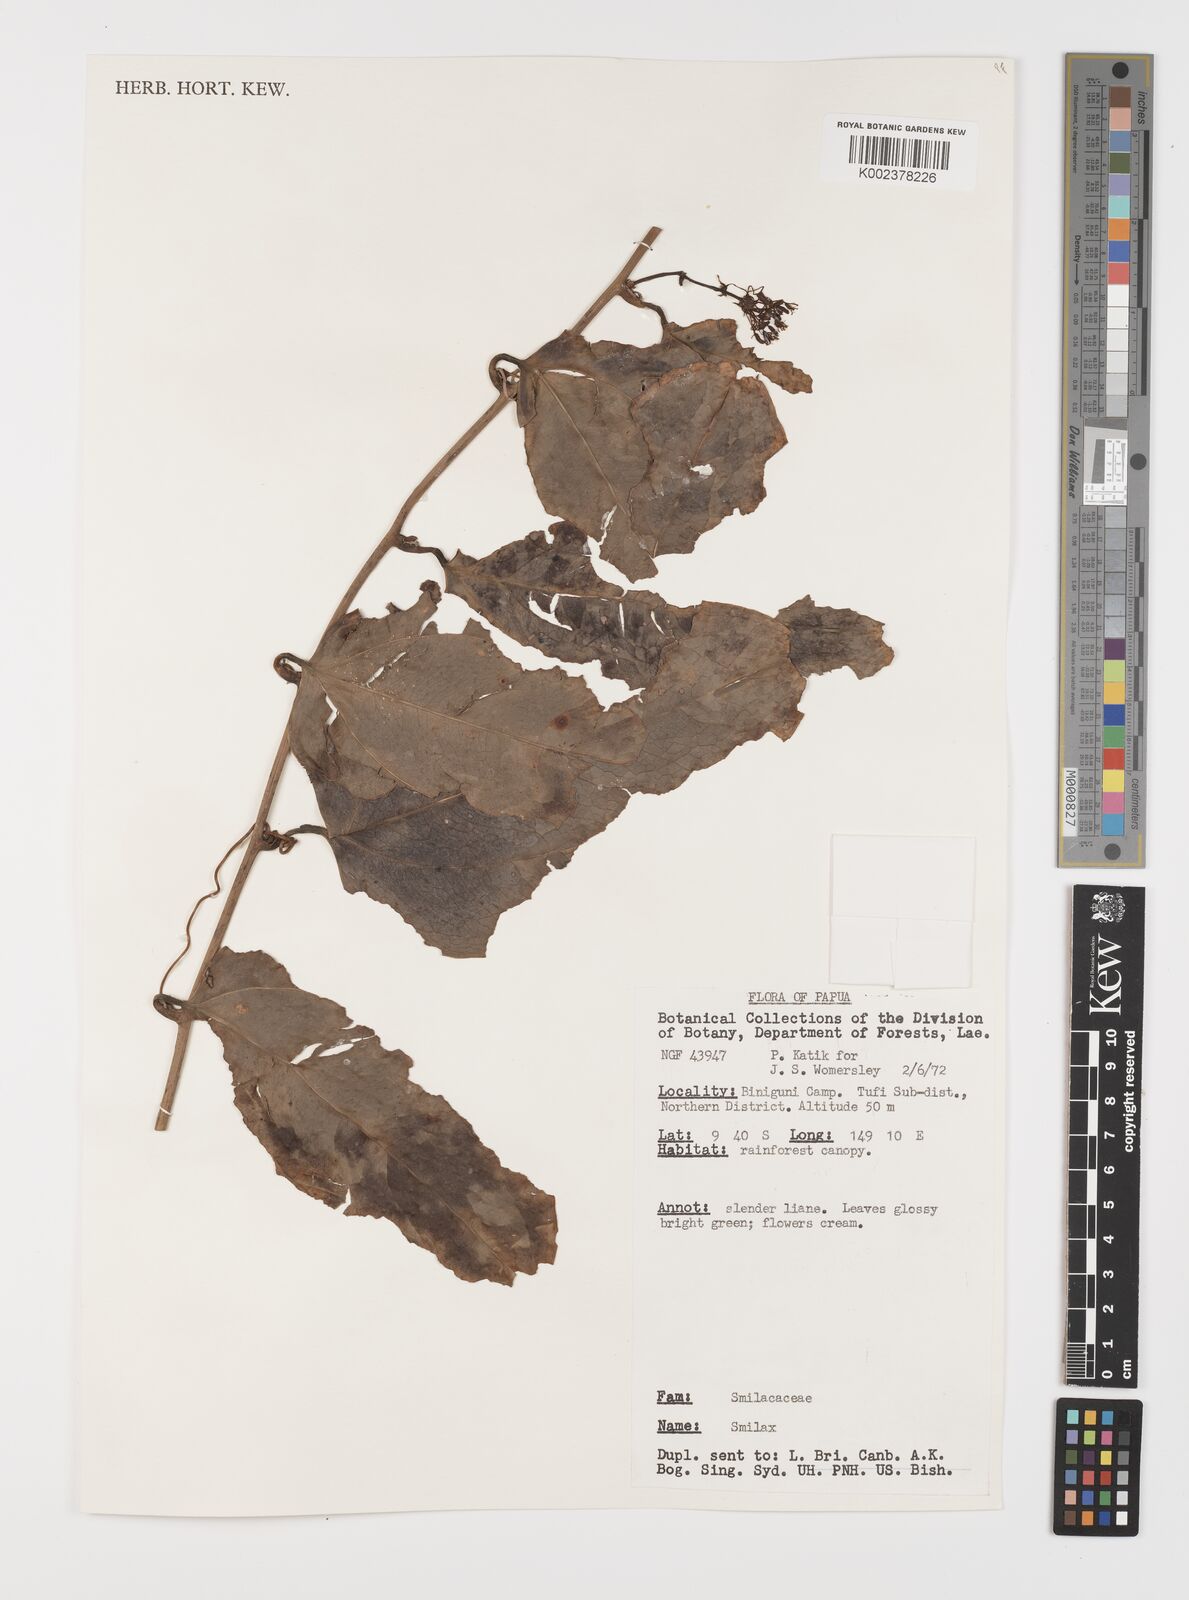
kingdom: Plantae
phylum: Tracheophyta
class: Liliopsida
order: Liliales
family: Smilacaceae
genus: Smilax
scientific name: Smilax
